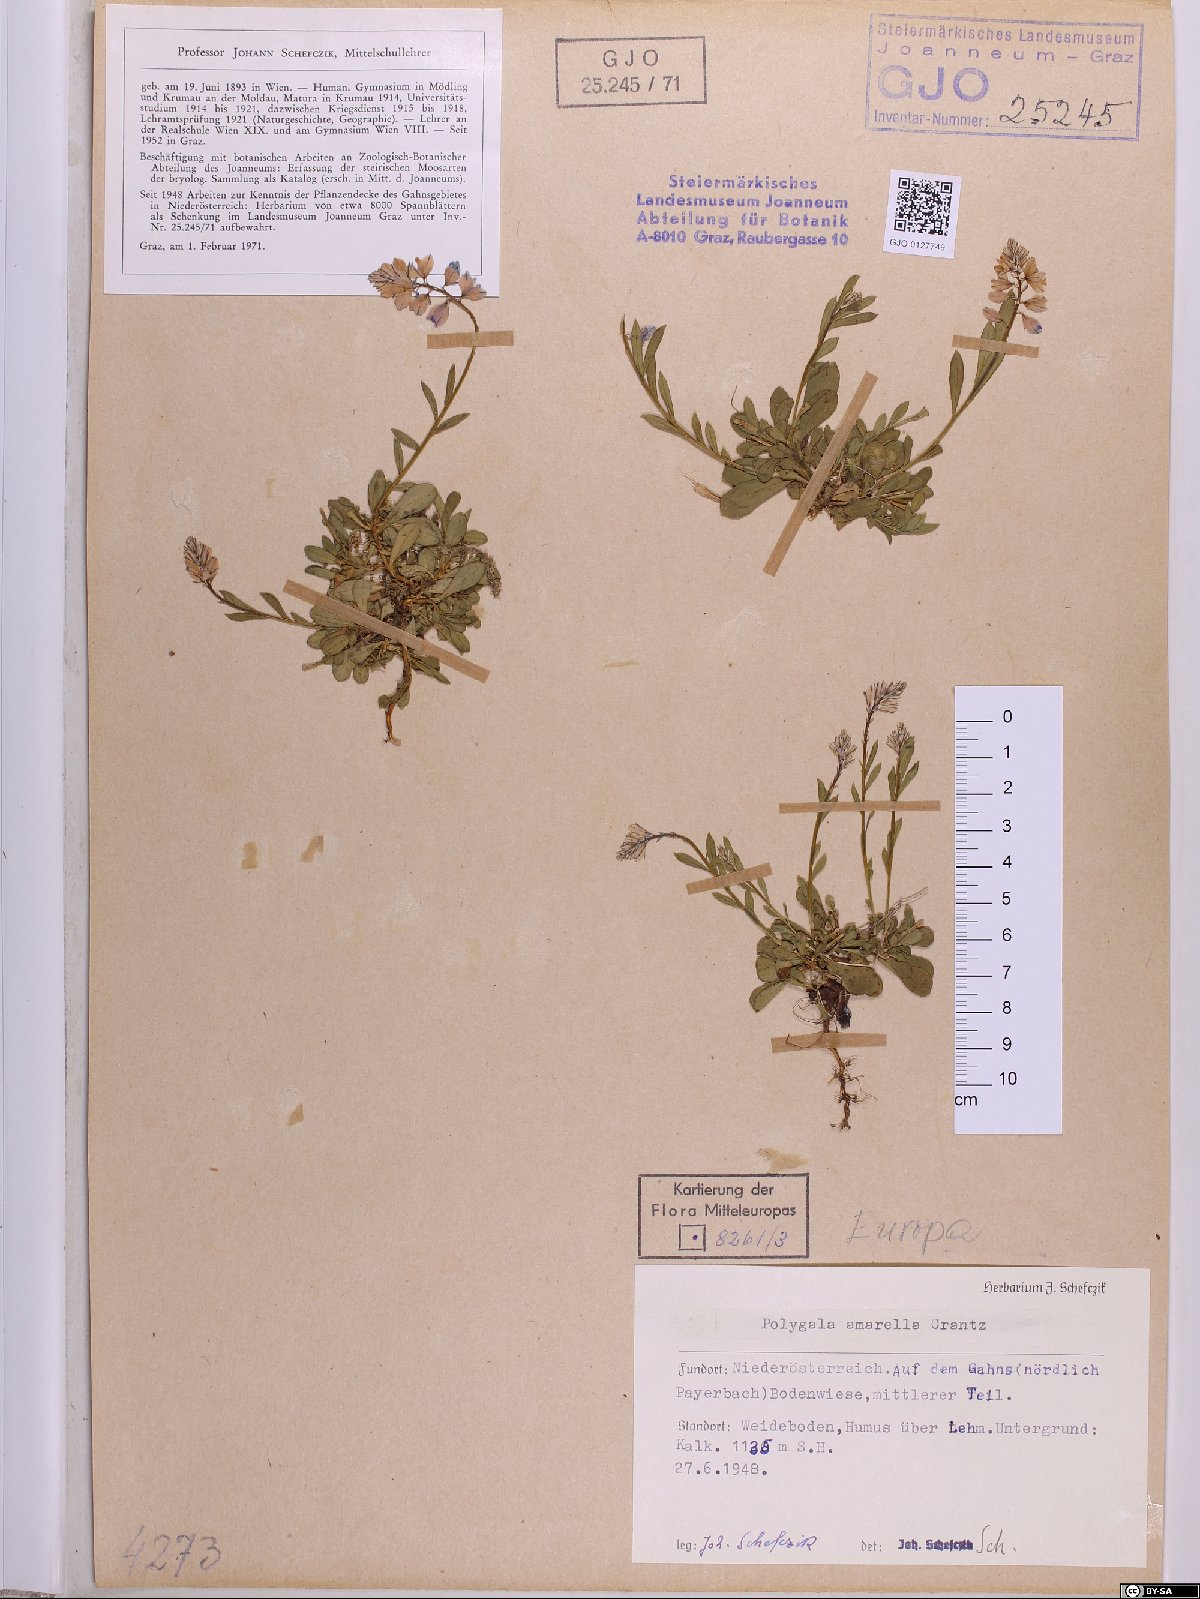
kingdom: Plantae
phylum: Tracheophyta
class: Magnoliopsida
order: Fabales
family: Polygalaceae
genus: Polygala
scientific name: Polygala amarella
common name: Dwarf milkwort
